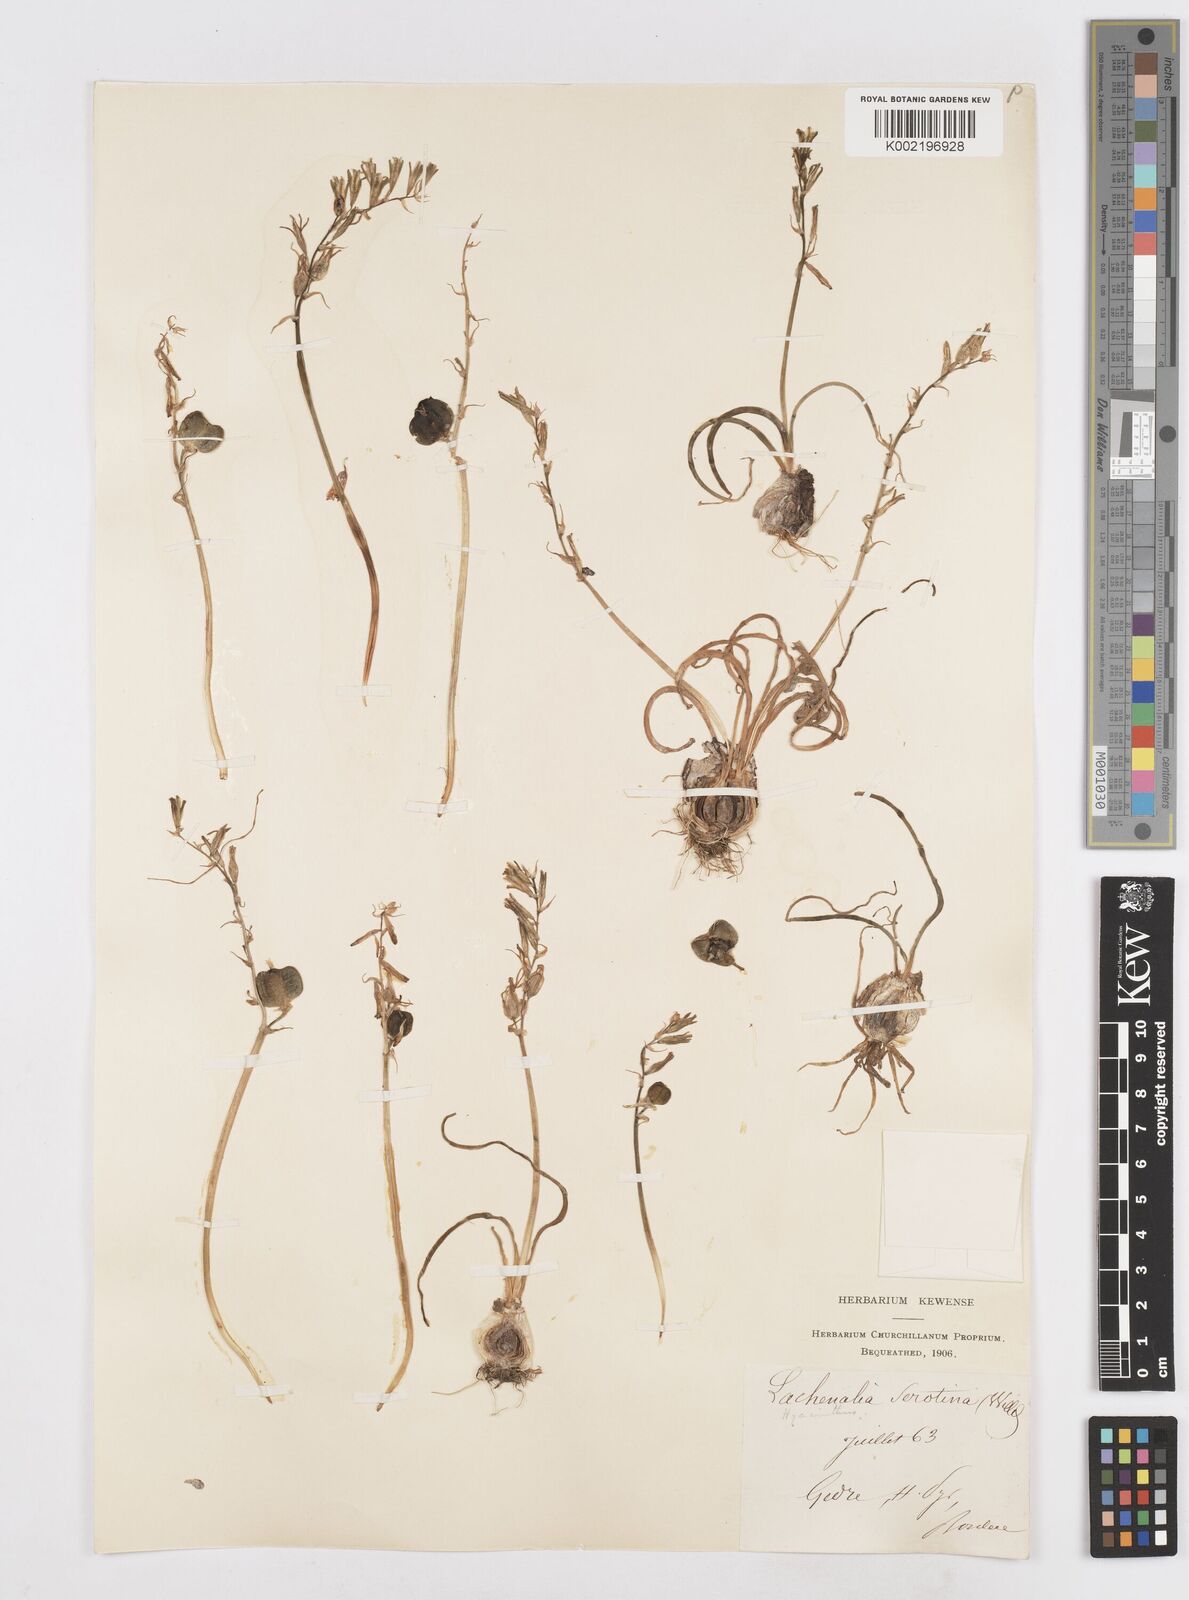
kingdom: Plantae
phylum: Tracheophyta
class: Liliopsida
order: Asparagales
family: Asparagaceae
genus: Dipcadi
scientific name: Dipcadi serotinum
